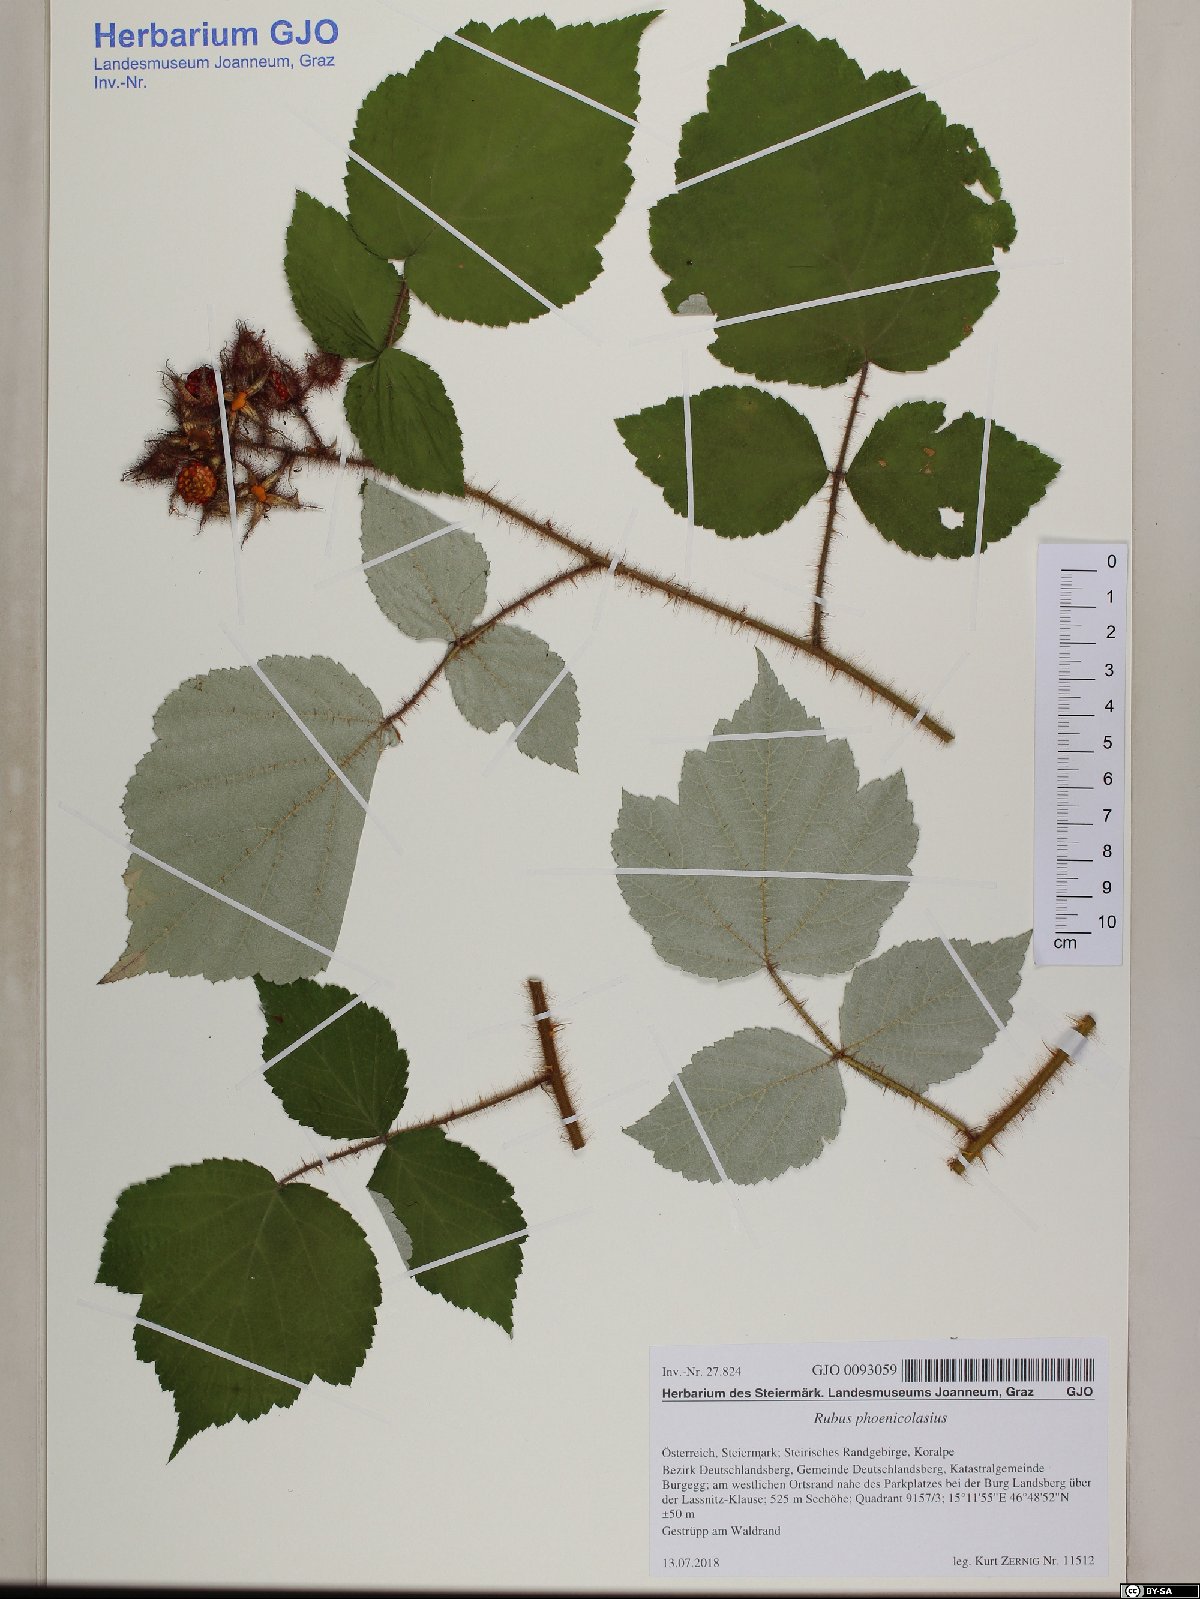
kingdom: Plantae
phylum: Tracheophyta
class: Magnoliopsida
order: Rosales
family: Rosaceae
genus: Rubus
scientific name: Rubus phoenicolasius
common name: Japanese wineberry
